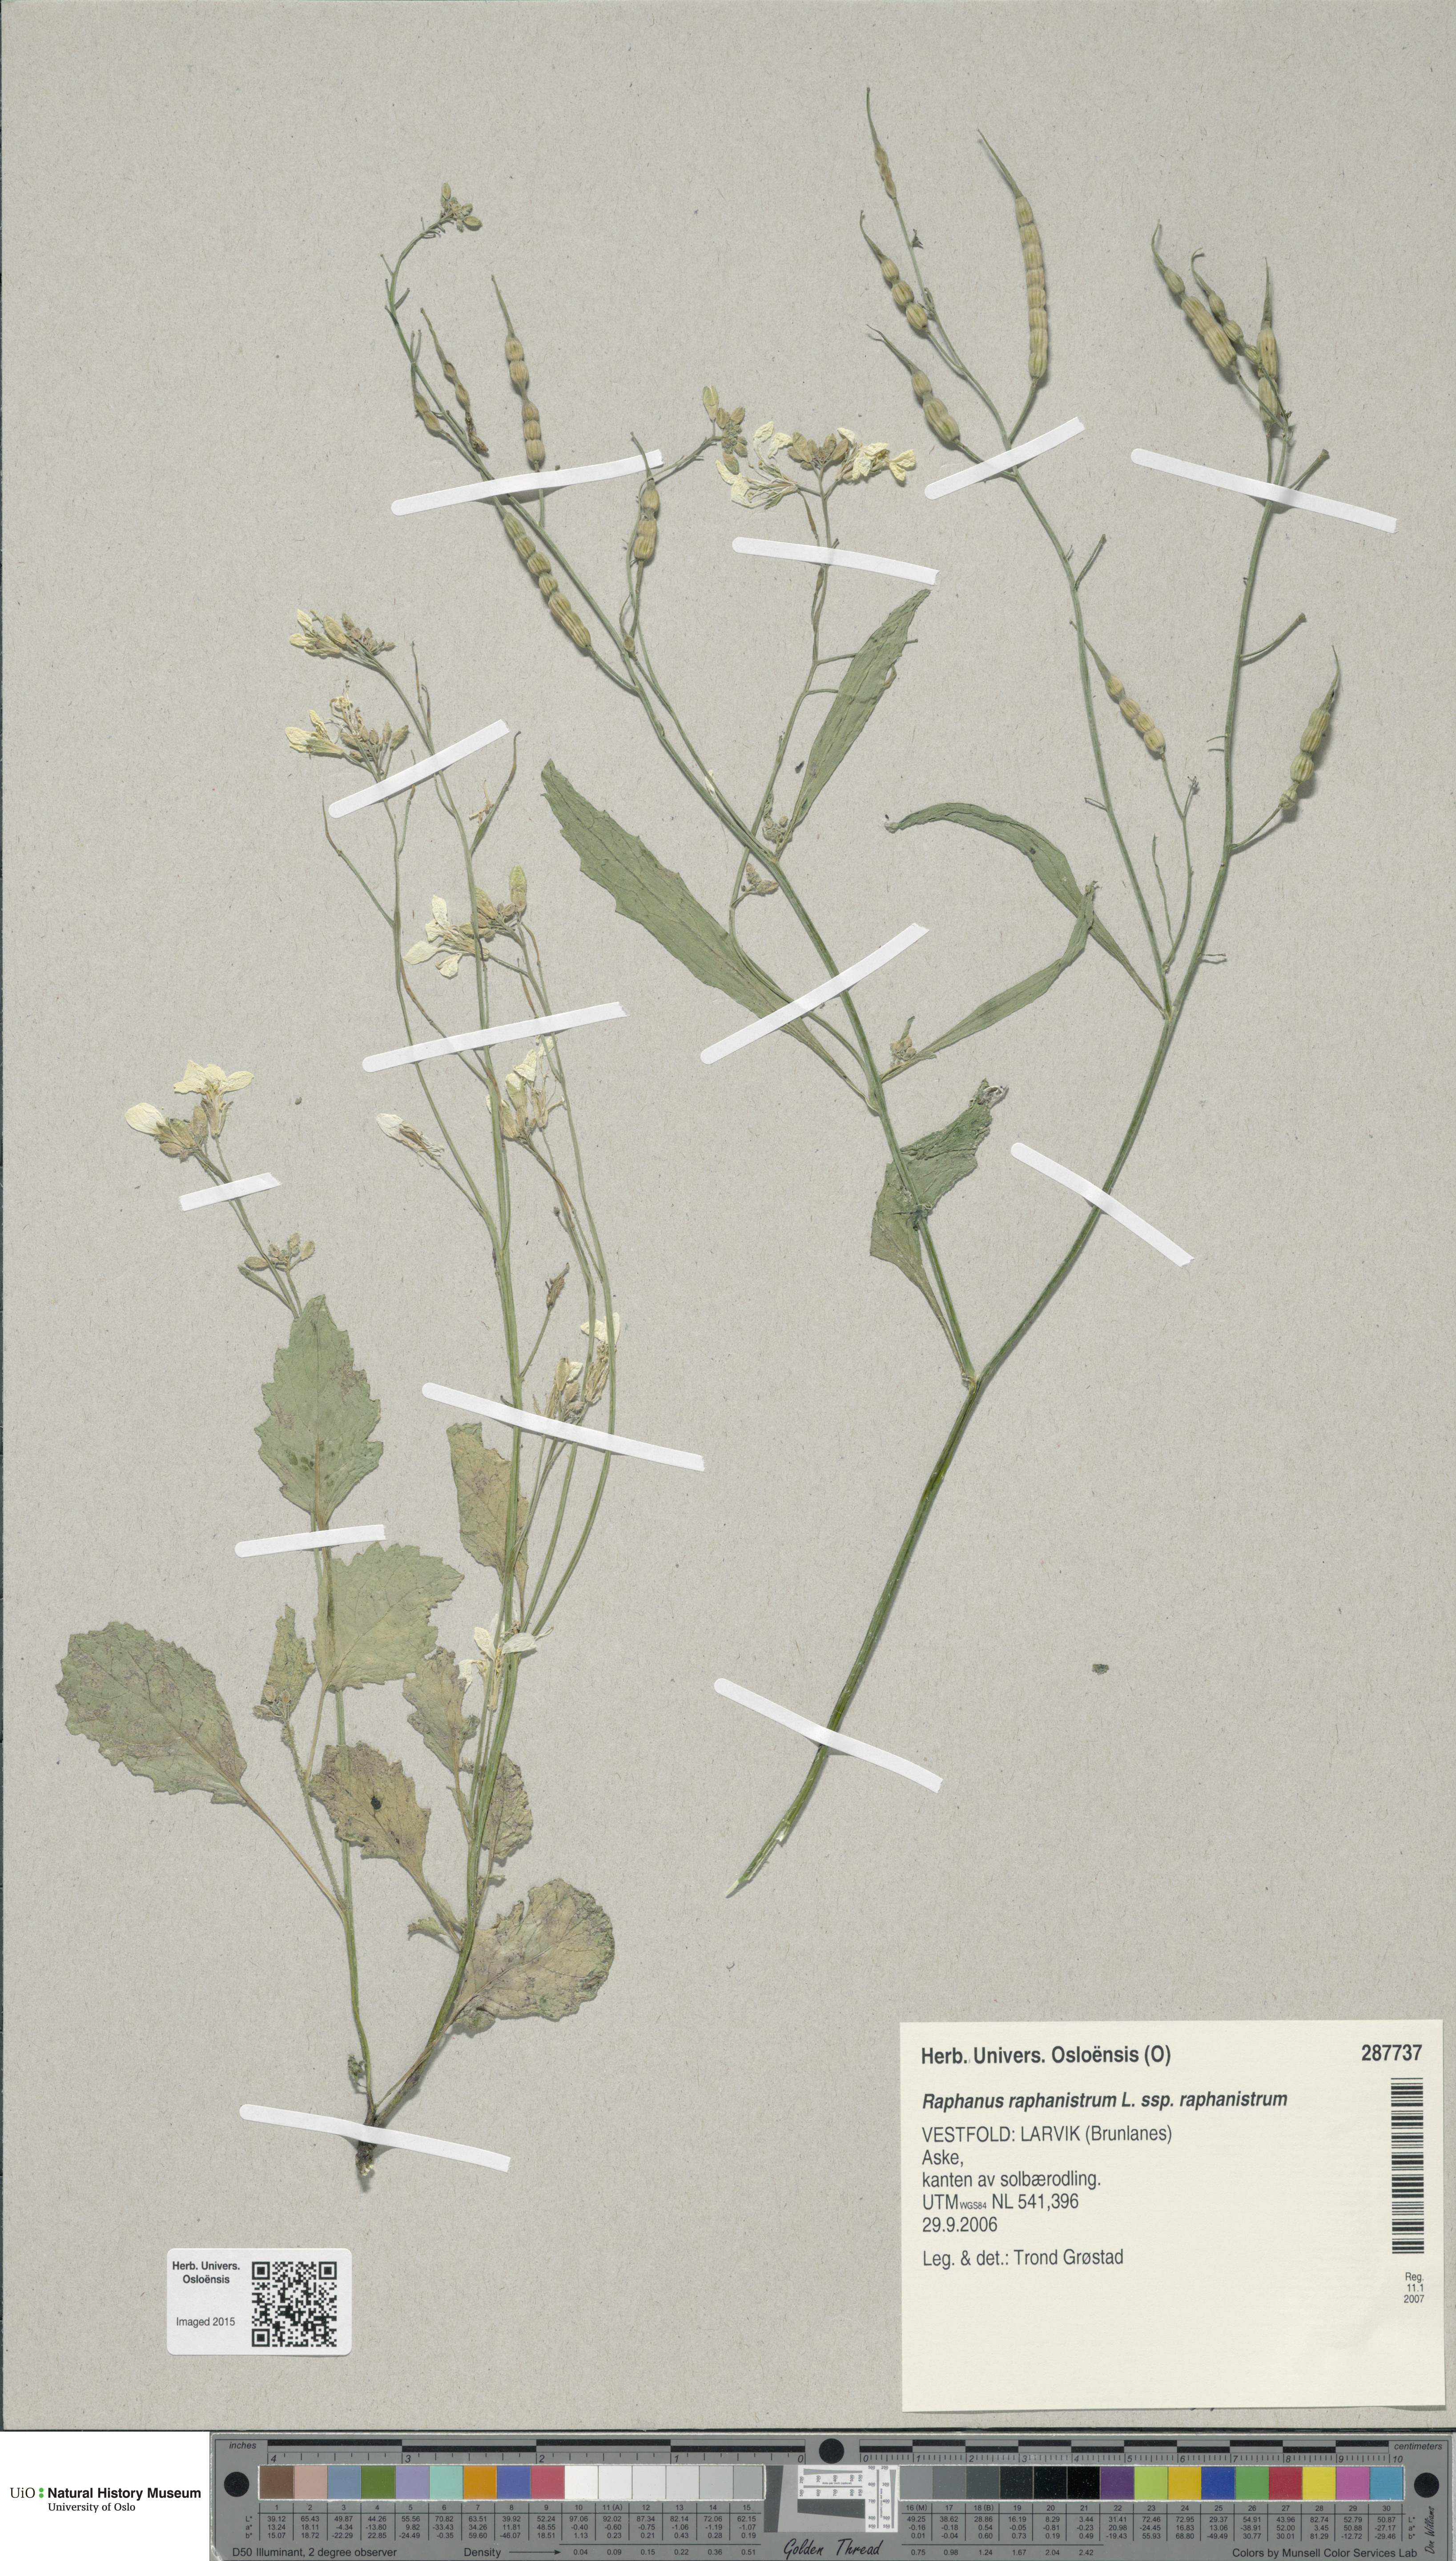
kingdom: Plantae
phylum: Tracheophyta
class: Magnoliopsida
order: Brassicales
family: Brassicaceae
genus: Raphanus
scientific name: Raphanus raphanistrum
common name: Wild radish
